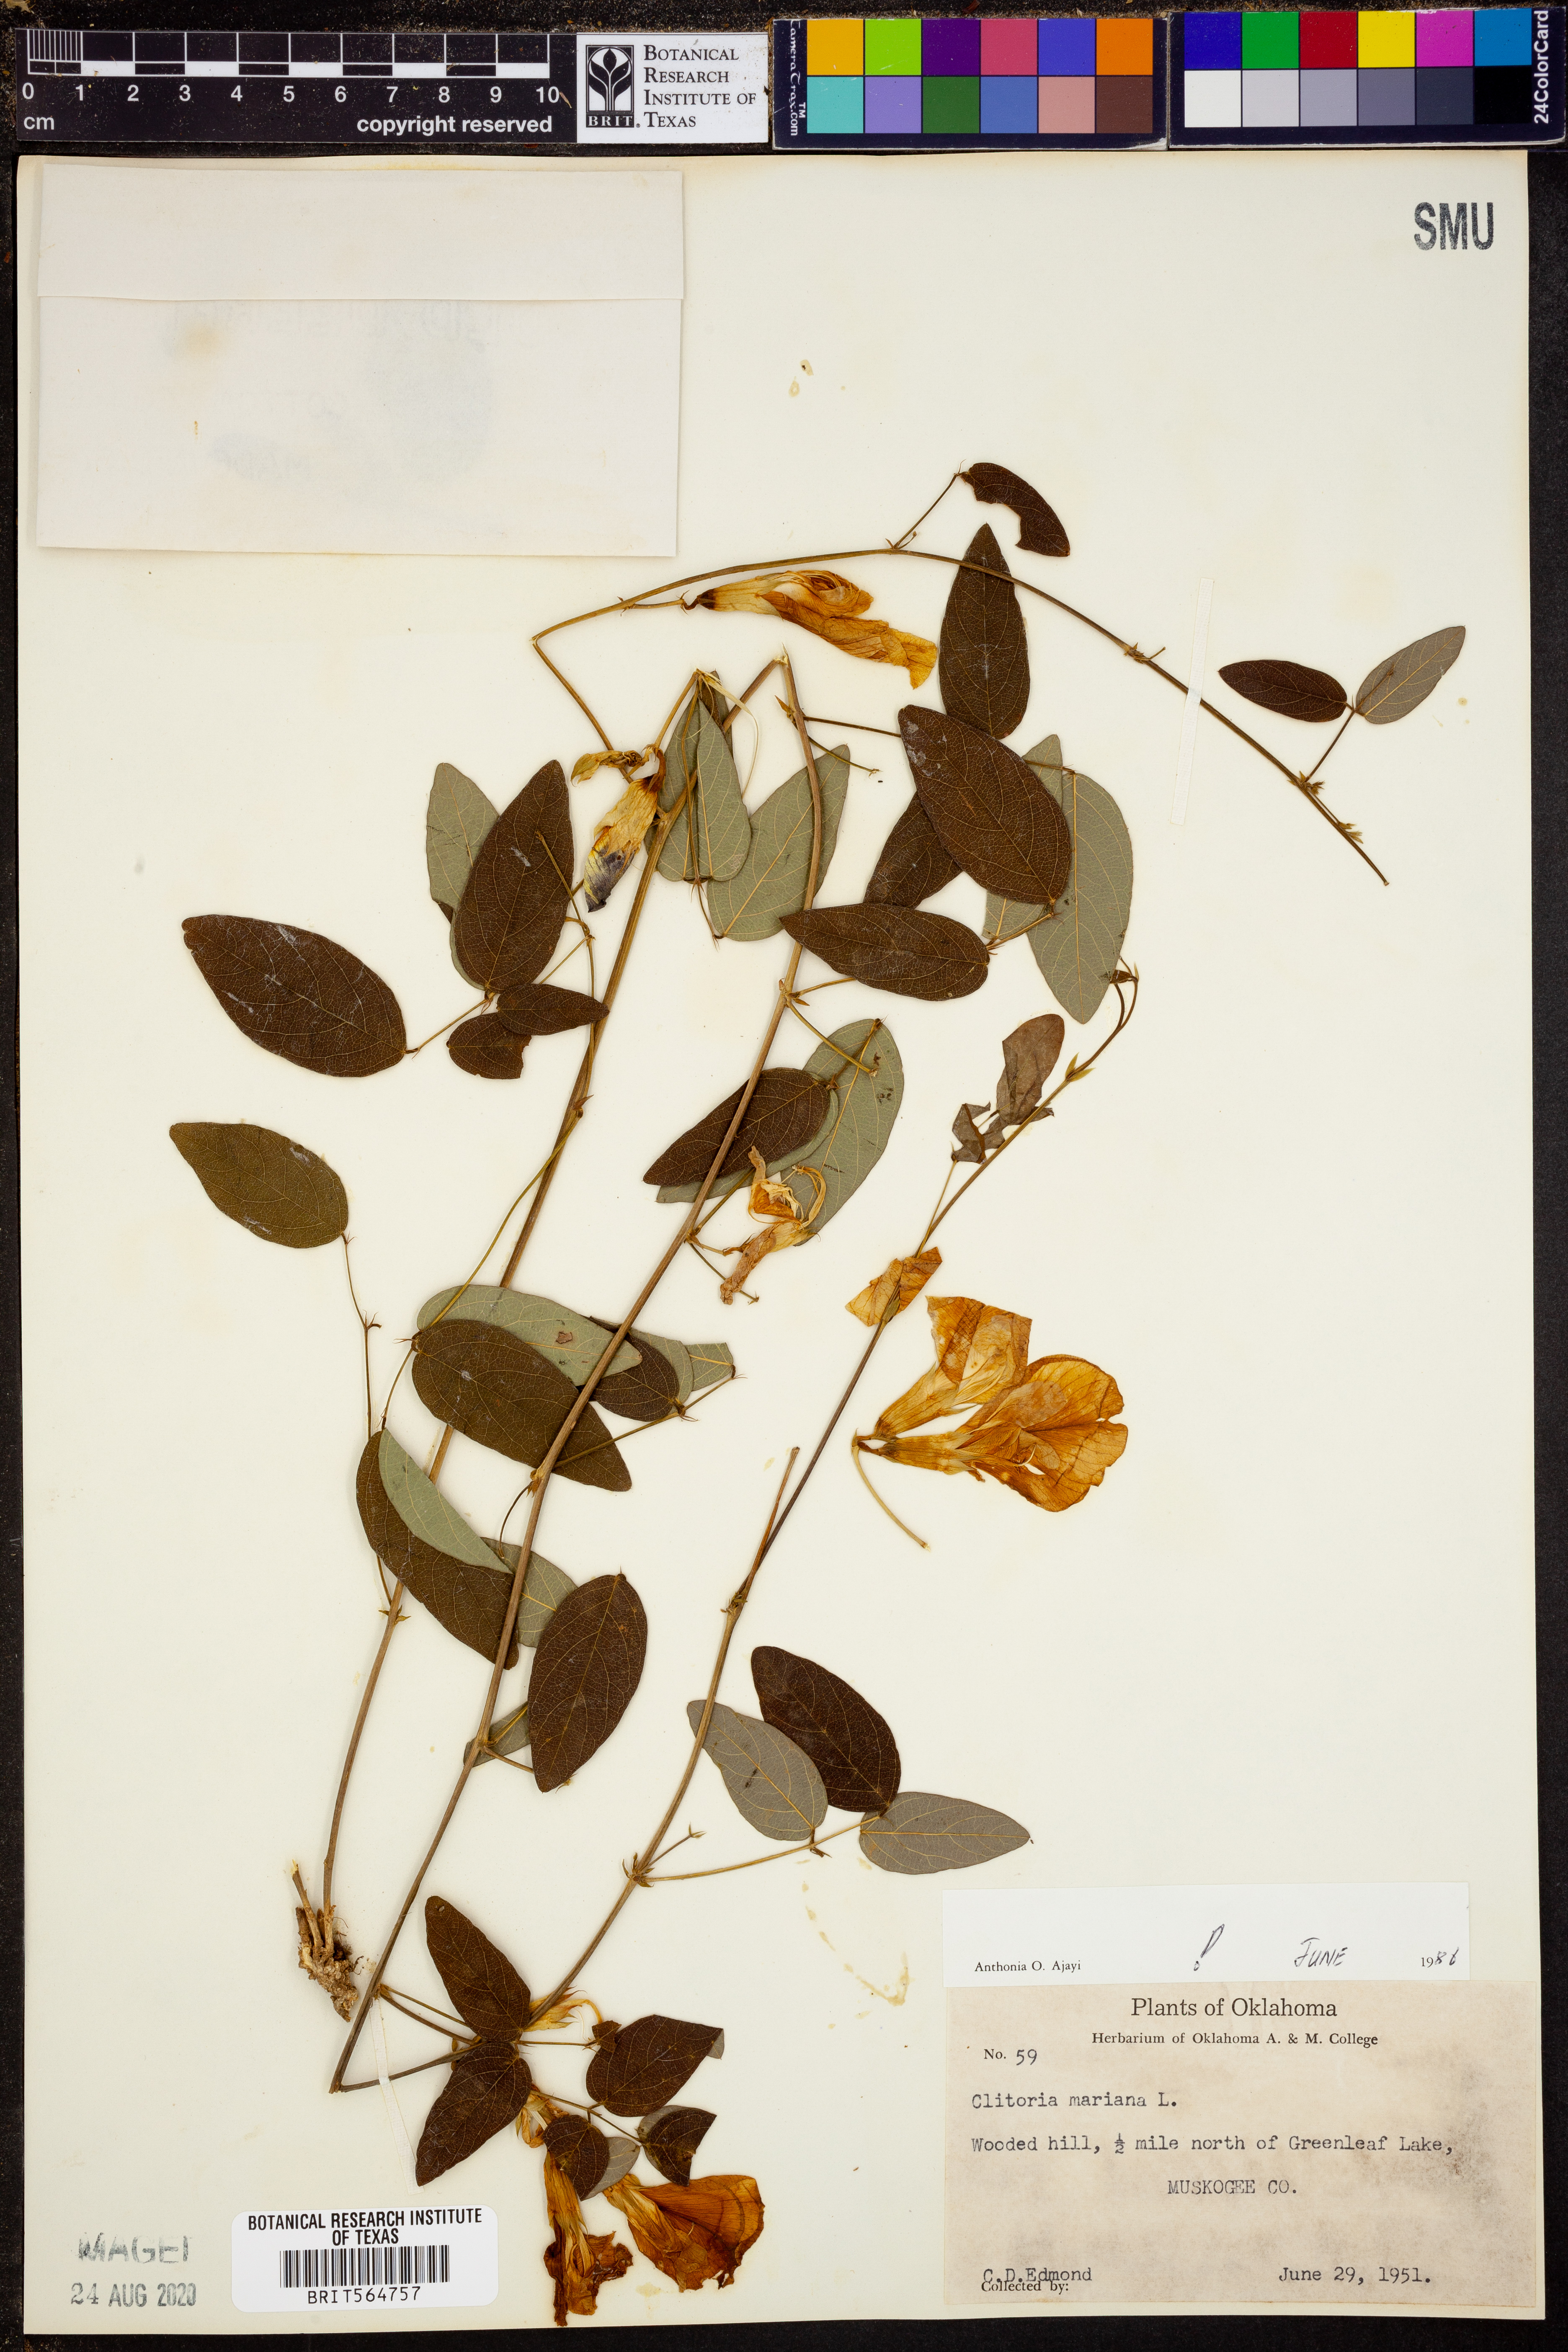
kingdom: Plantae
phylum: Tracheophyta
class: Magnoliopsida
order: Fabales
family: Fabaceae
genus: Clitoria
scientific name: Clitoria mariana
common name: Butterfly-pea
